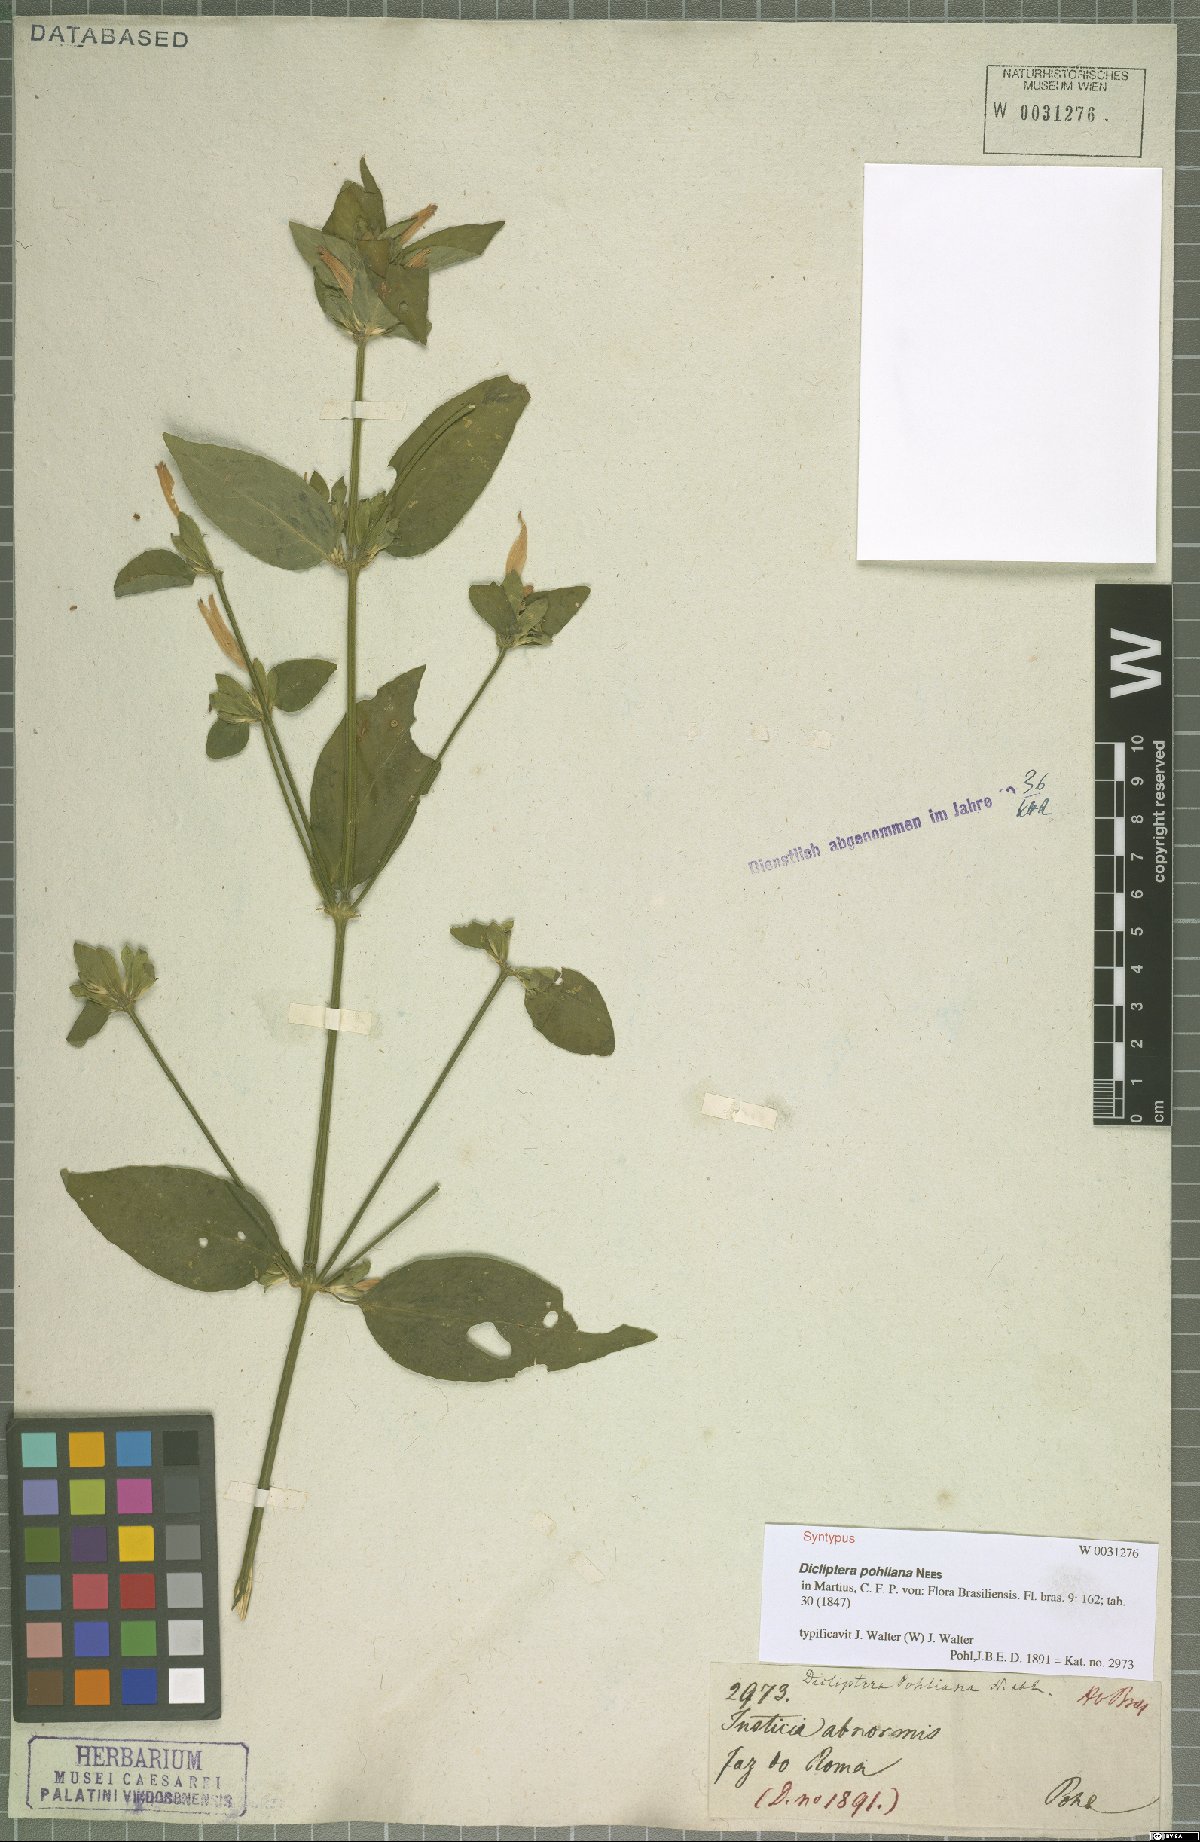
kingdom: Plantae
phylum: Tracheophyta
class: Magnoliopsida
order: Lamiales
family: Acanthaceae
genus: Dicliptera
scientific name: Dicliptera squarrosa
